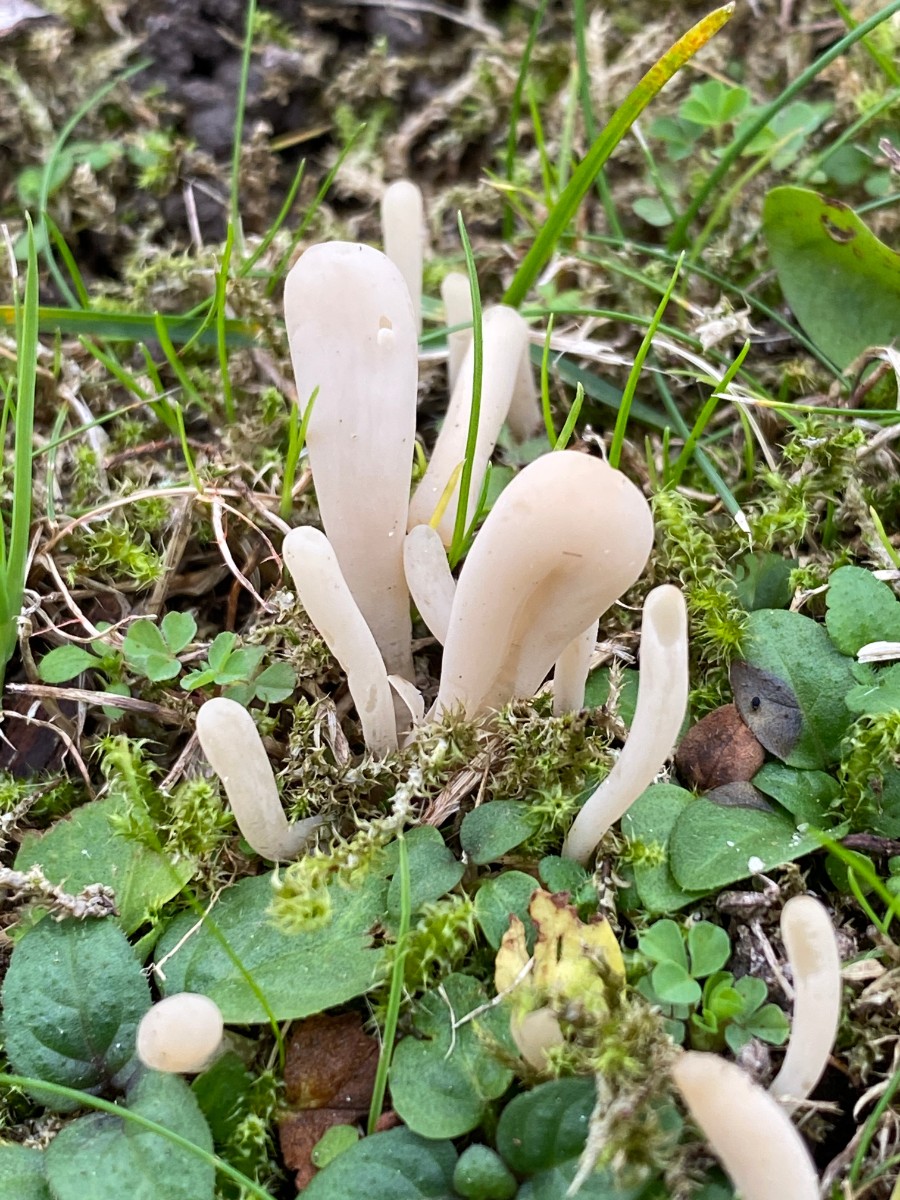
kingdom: Fungi
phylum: Basidiomycota
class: Agaricomycetes
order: Agaricales
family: Clavariaceae
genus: Clavaria
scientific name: Clavaria tenuipes
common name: isabellafarvet køllesvamp
